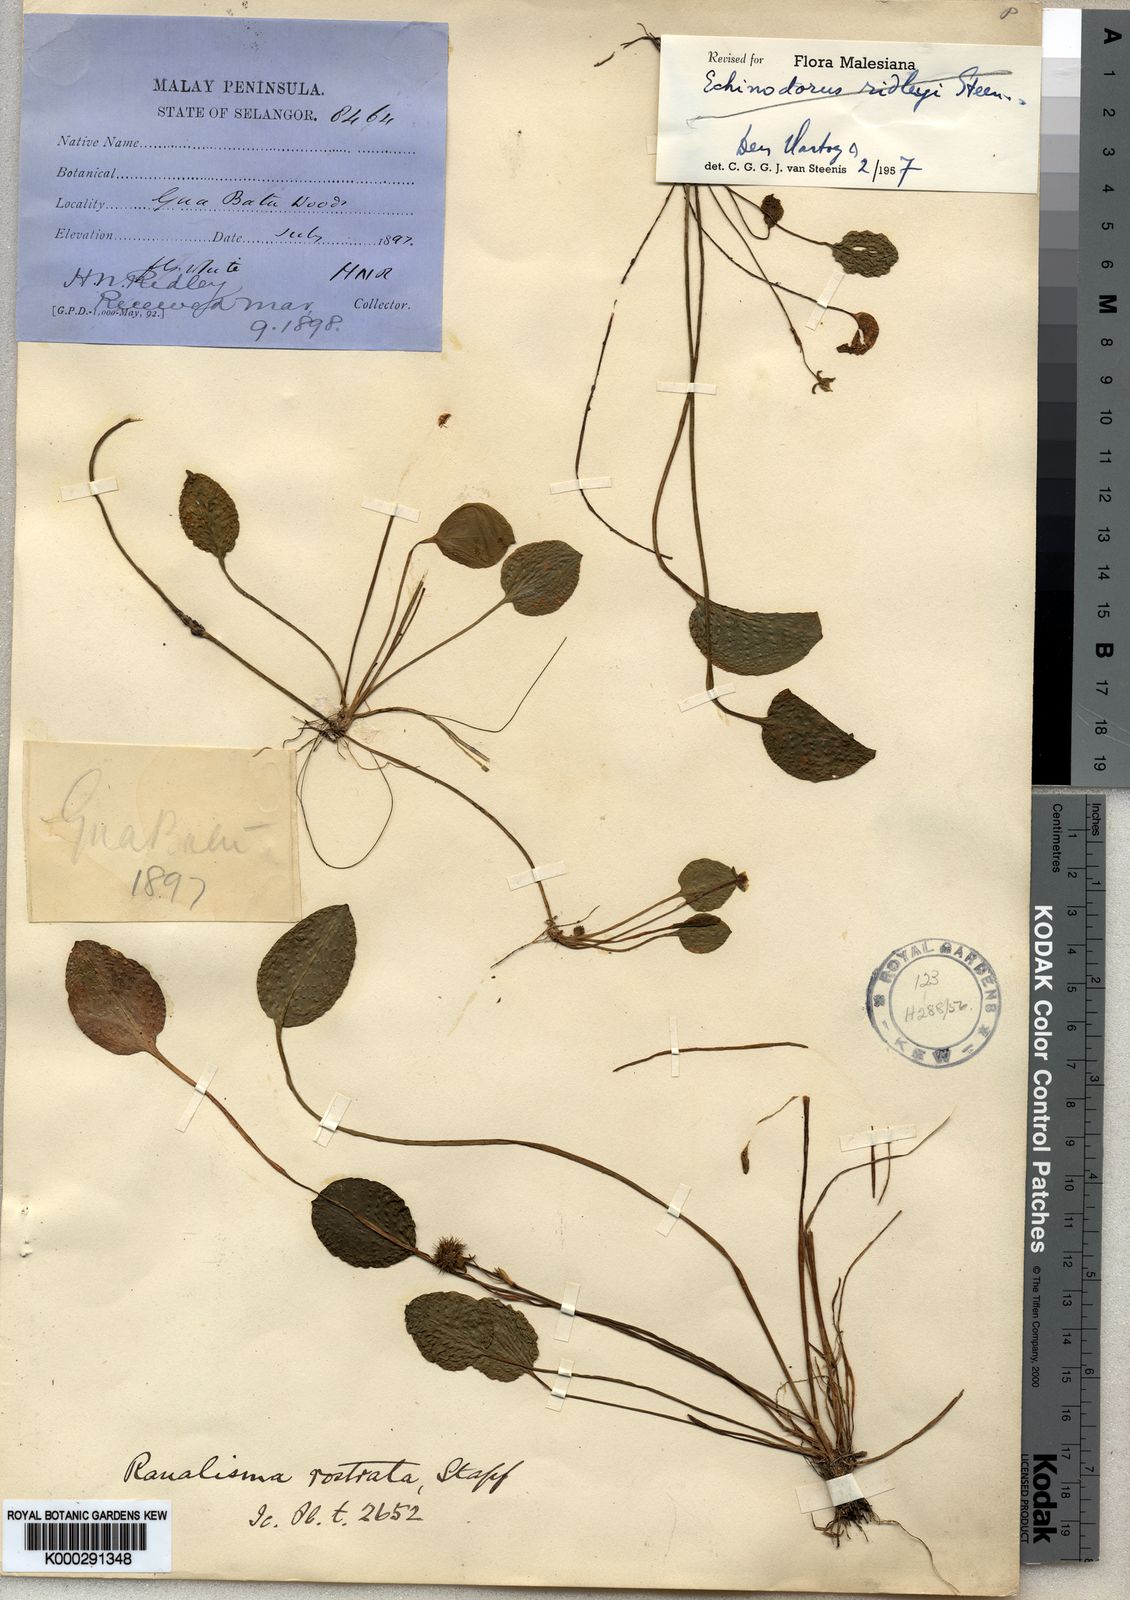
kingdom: Plantae
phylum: Tracheophyta
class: Liliopsida
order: Alismatales
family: Alismataceae
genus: Ranalisma
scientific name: Ranalisma rostrata
